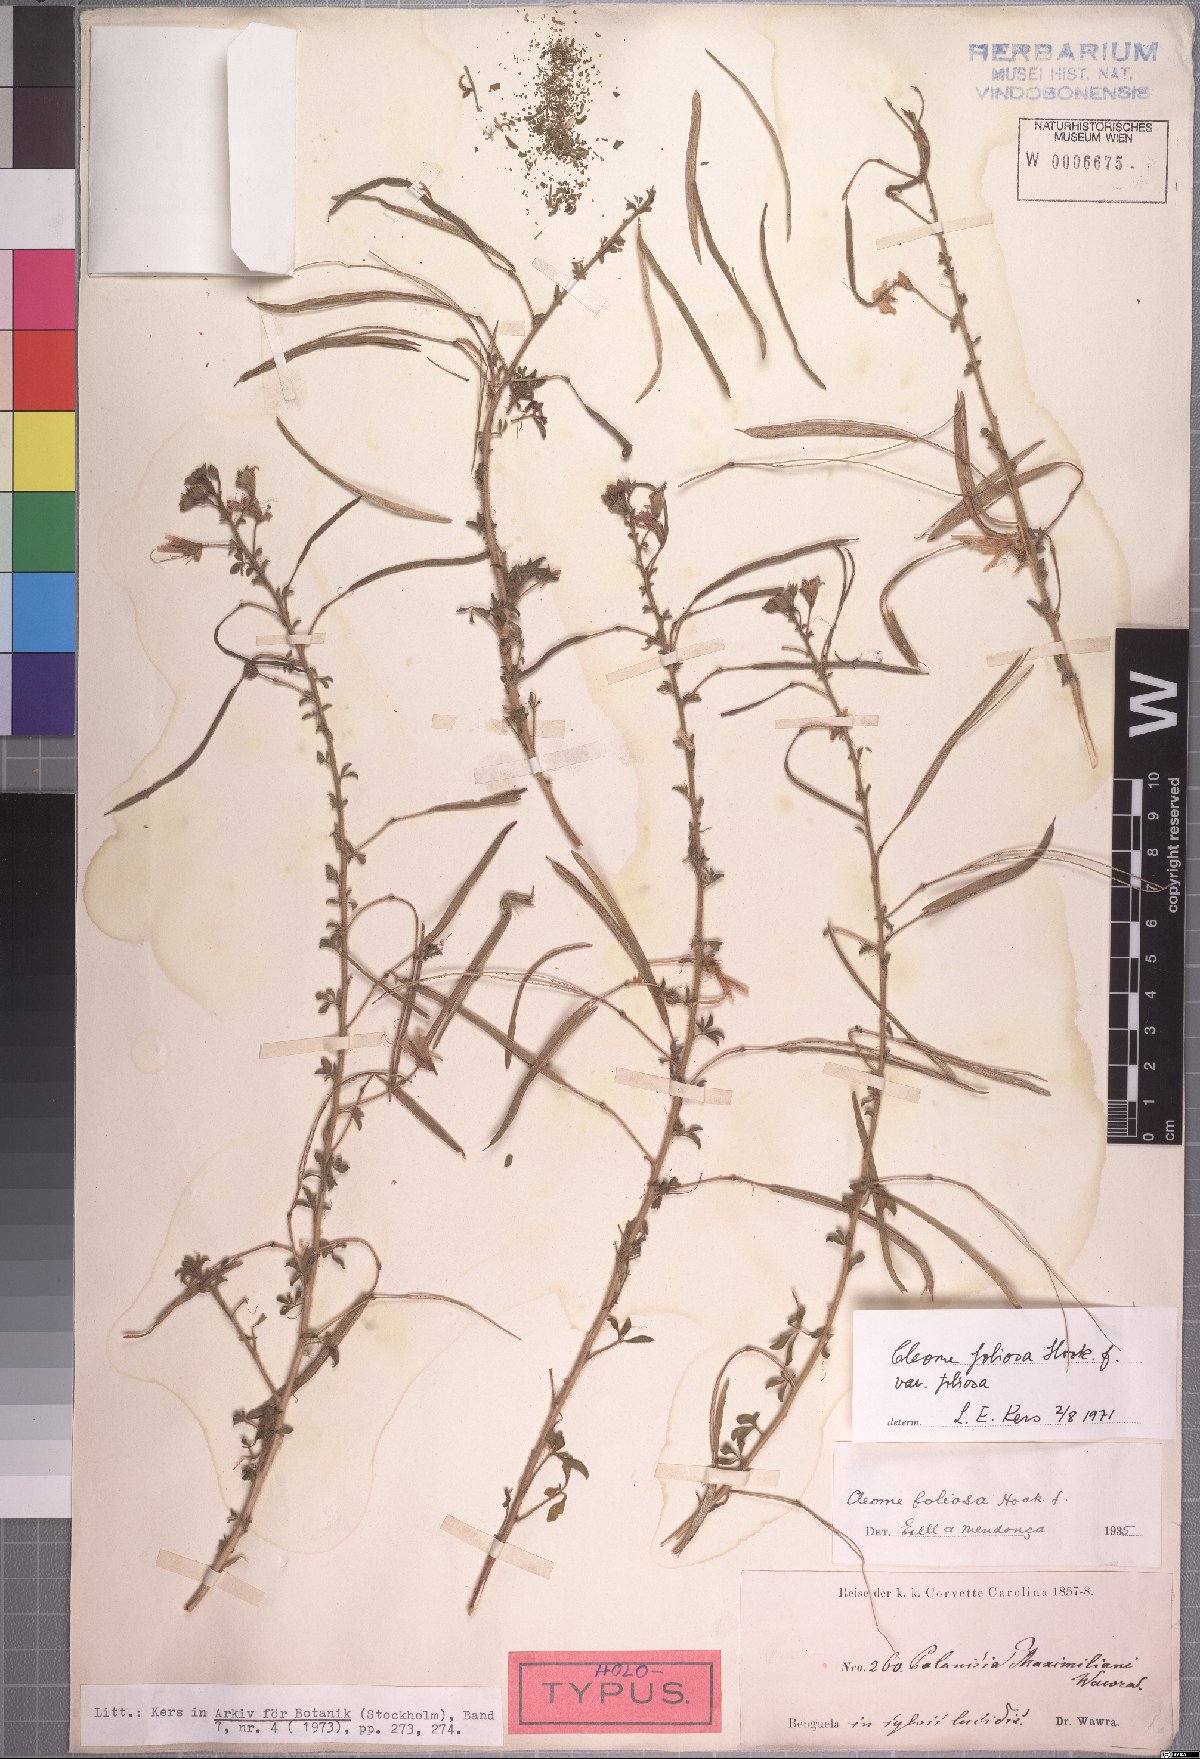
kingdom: Plantae
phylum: Tracheophyta
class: Magnoliopsida
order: Brassicales
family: Cleomaceae
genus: Kersia
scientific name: Kersia foliosa
